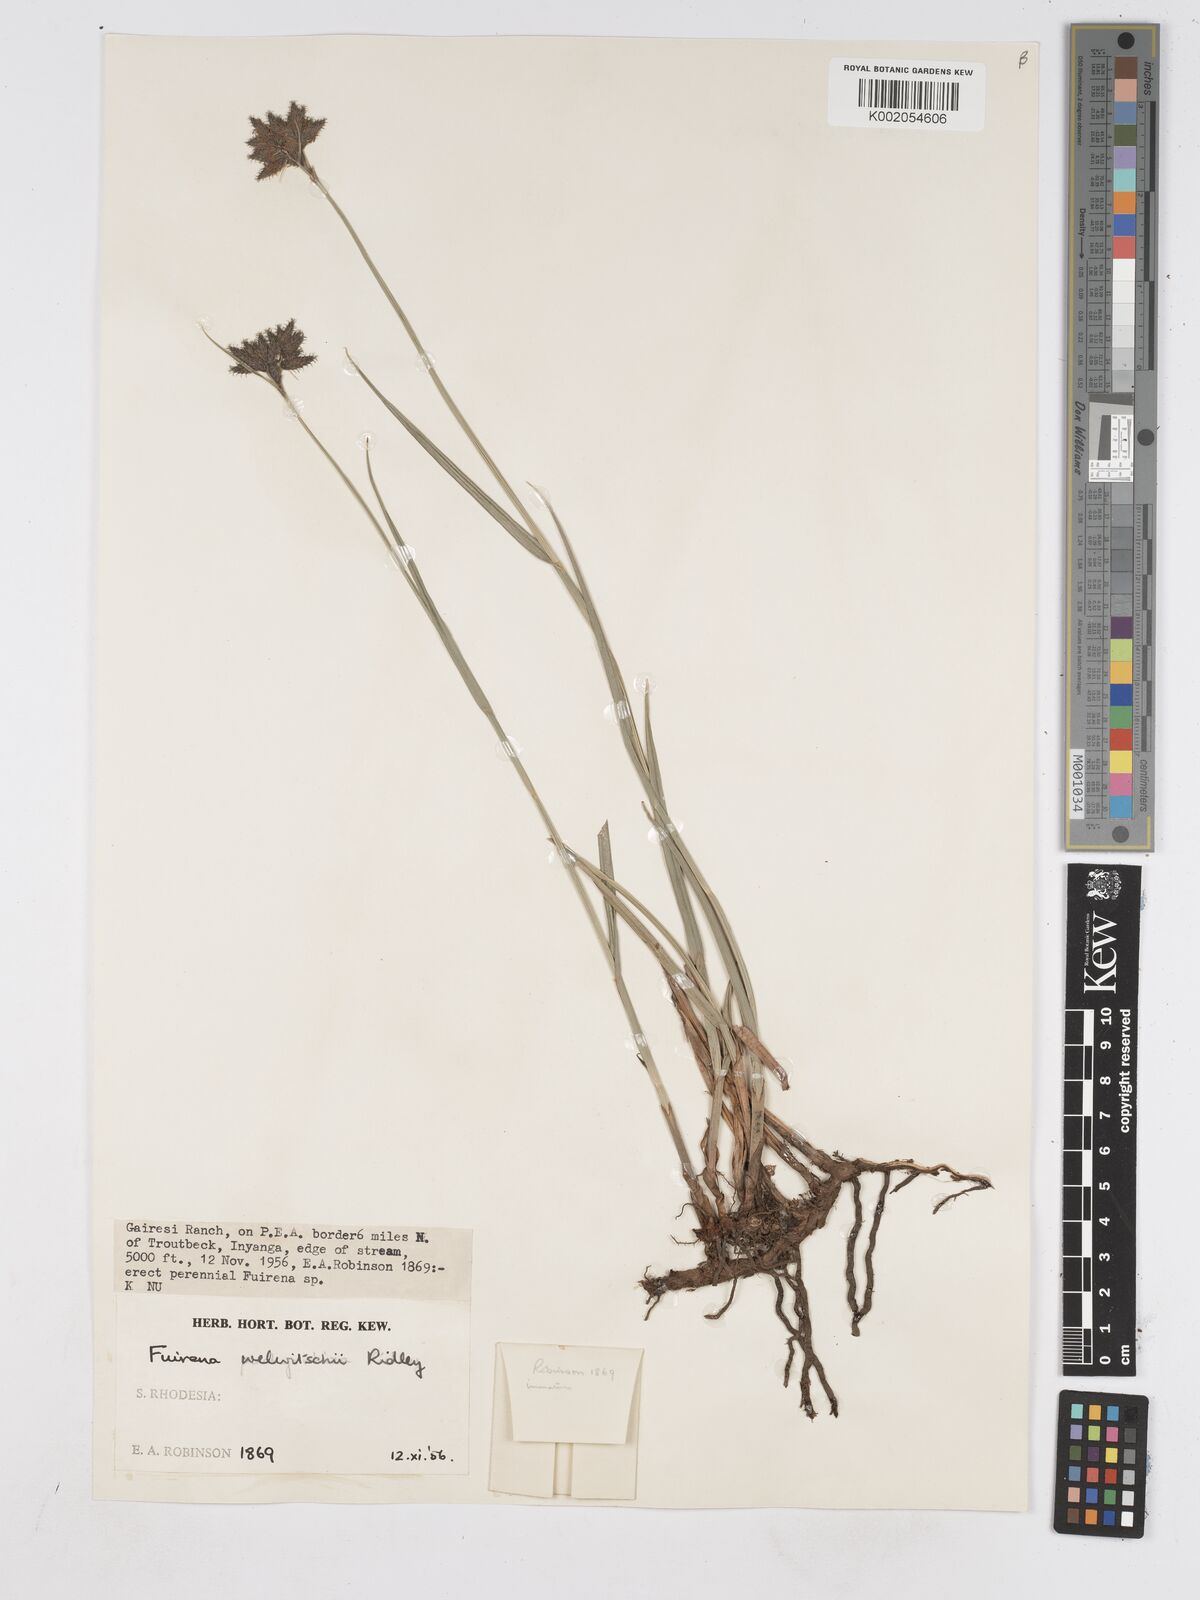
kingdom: Plantae
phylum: Tracheophyta
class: Liliopsida
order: Poales
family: Cyperaceae
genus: Fuirena
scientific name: Fuirena welwitschii
